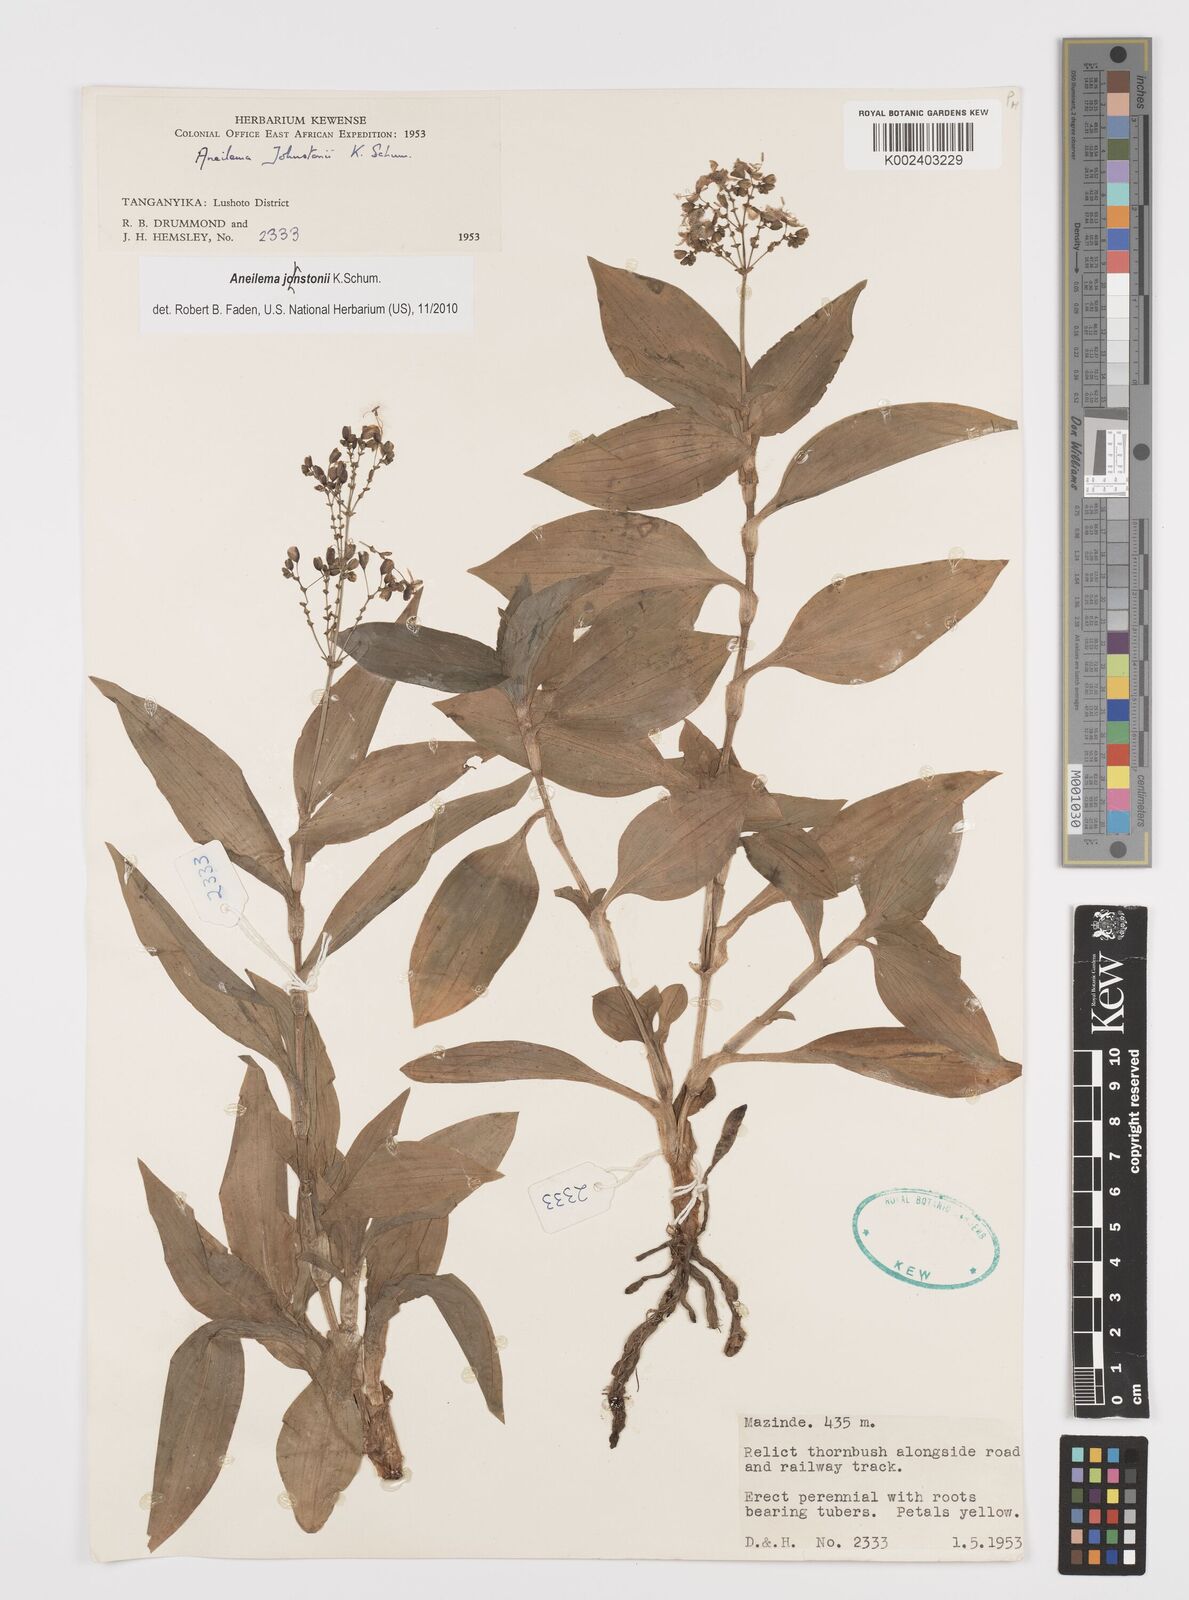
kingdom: Plantae
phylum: Tracheophyta
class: Liliopsida
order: Commelinales
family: Commelinaceae
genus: Aneilema
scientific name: Aneilema johnstonii
